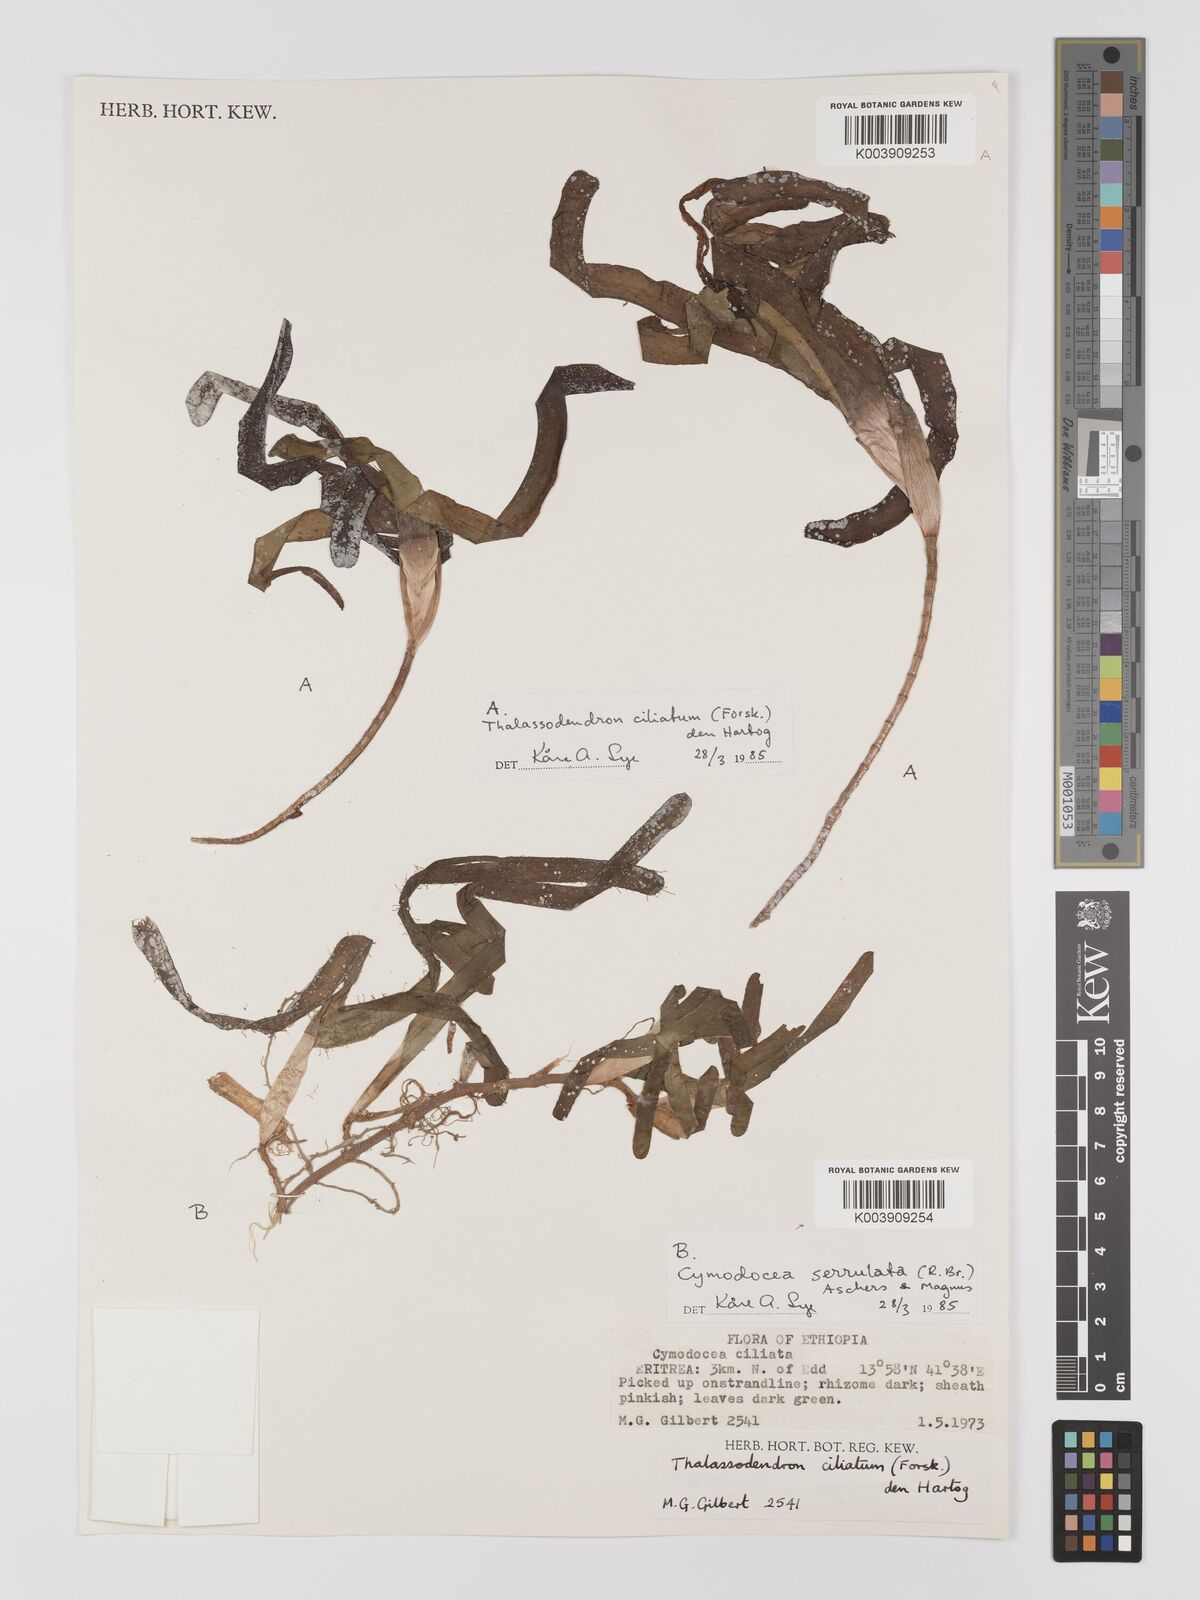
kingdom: Plantae
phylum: Tracheophyta
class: Liliopsida
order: Alismatales
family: Cymodoceaceae
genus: Thalassodendron
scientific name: Thalassodendron ciliatum
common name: Species code: tc
